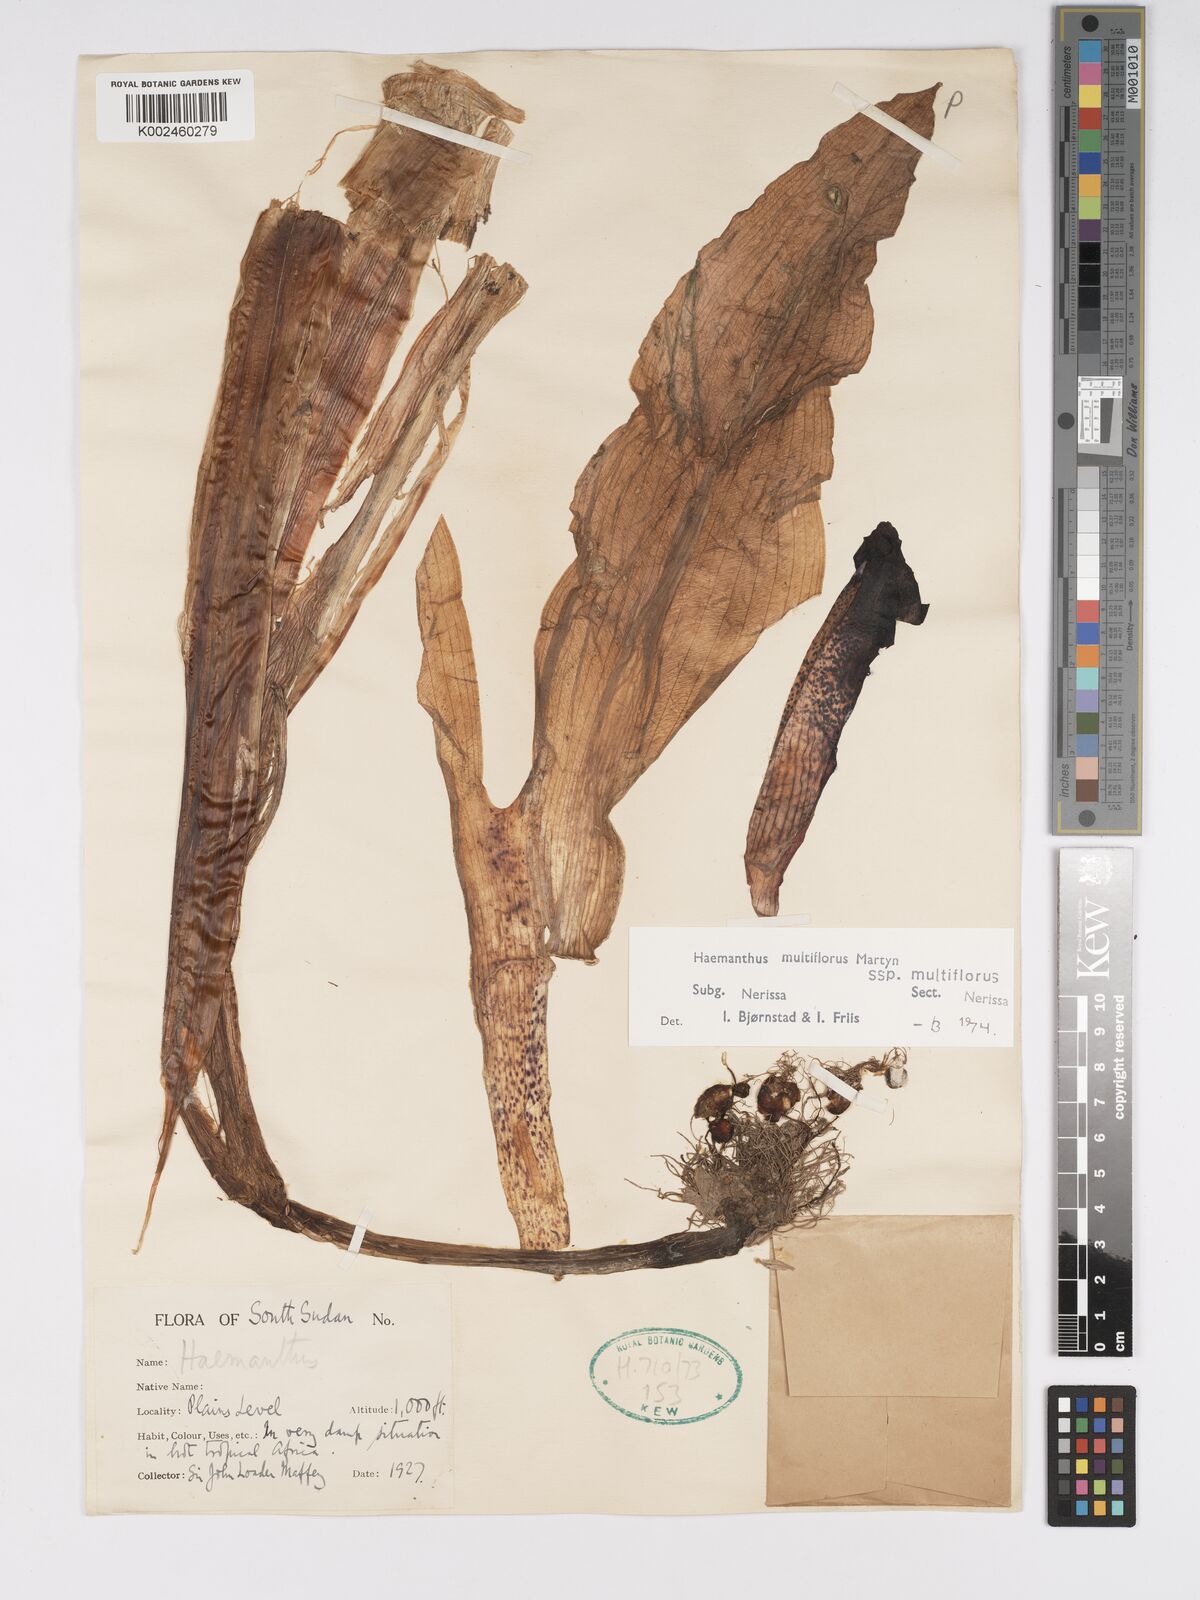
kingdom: Plantae
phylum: Tracheophyta
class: Liliopsida
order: Asparagales
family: Amaryllidaceae
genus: Scadoxus
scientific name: Scadoxus multiflorus
